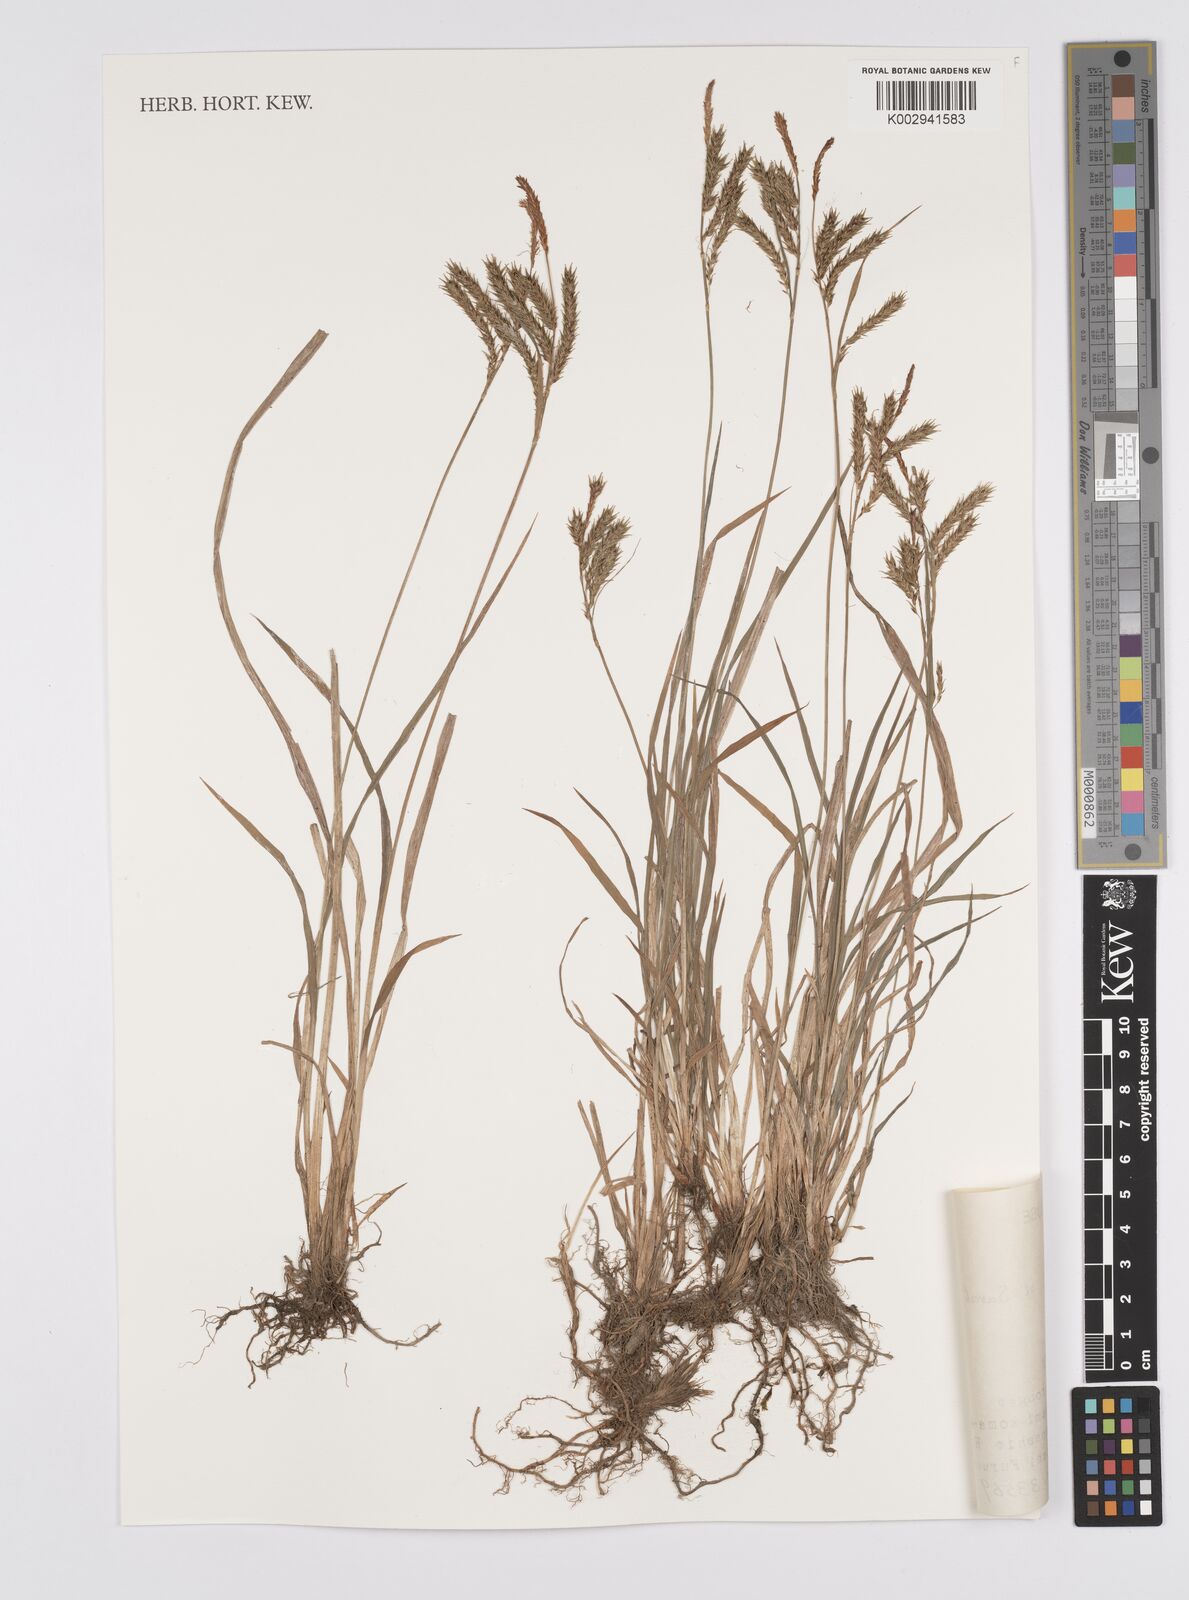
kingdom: Plantae
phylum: Tracheophyta
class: Liliopsida
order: Poales
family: Cyperaceae
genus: Carex
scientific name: Carex curvicollis
